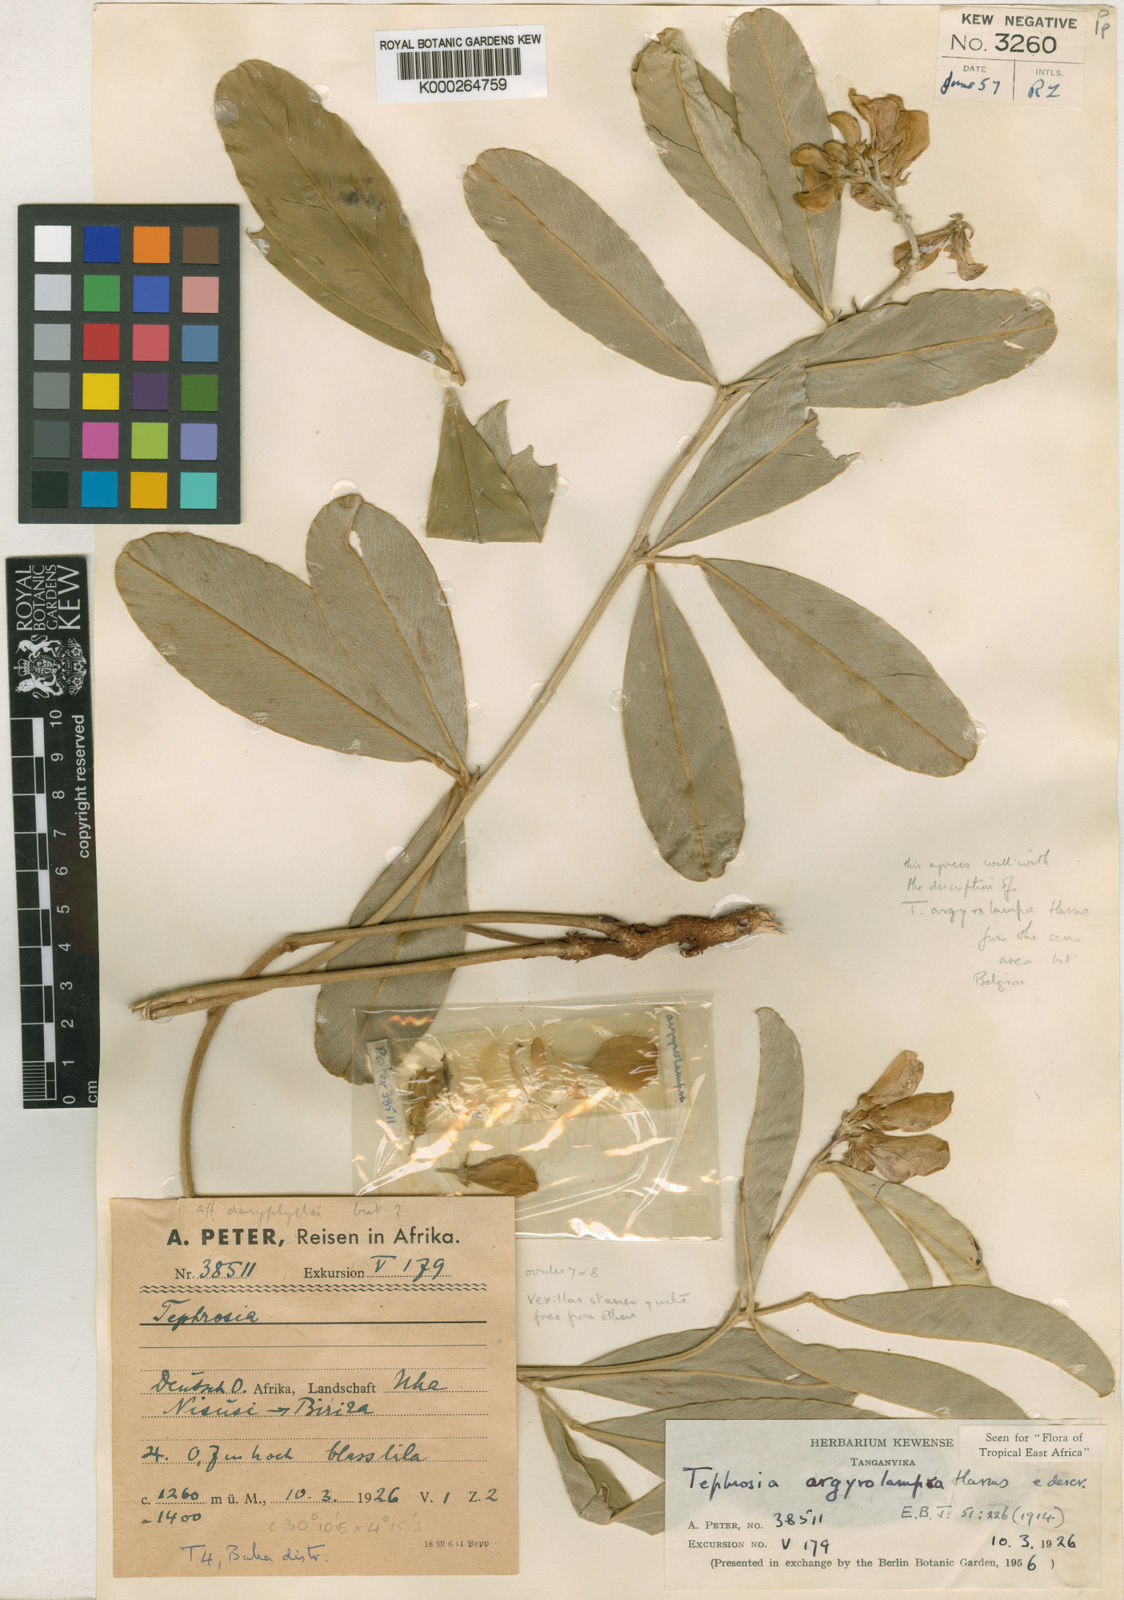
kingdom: Plantae
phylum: Tracheophyta
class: Magnoliopsida
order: Fabales
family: Fabaceae
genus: Tephrosia
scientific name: Tephrosia argyrolampra
